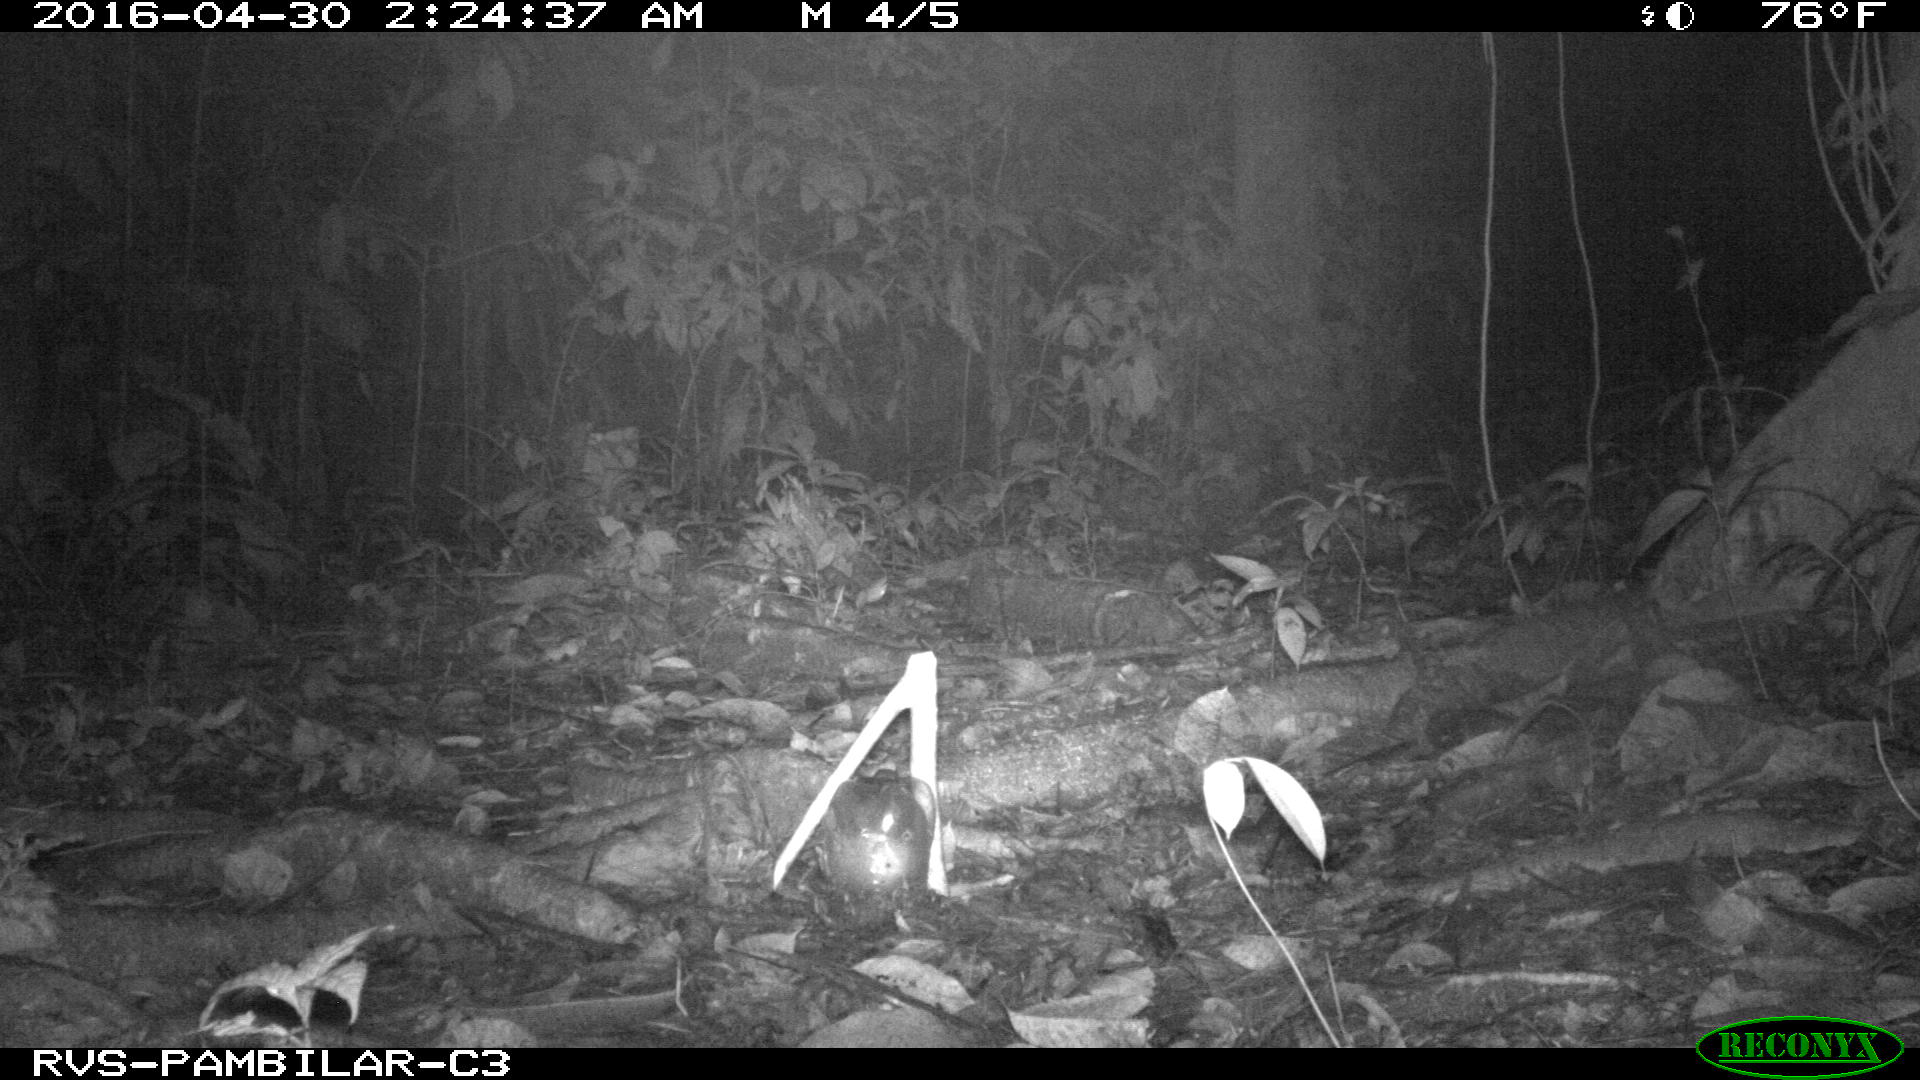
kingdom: Animalia
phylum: Chordata
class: Mammalia
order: Carnivora
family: Felidae
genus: Puma
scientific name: Puma concolor
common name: Puma
